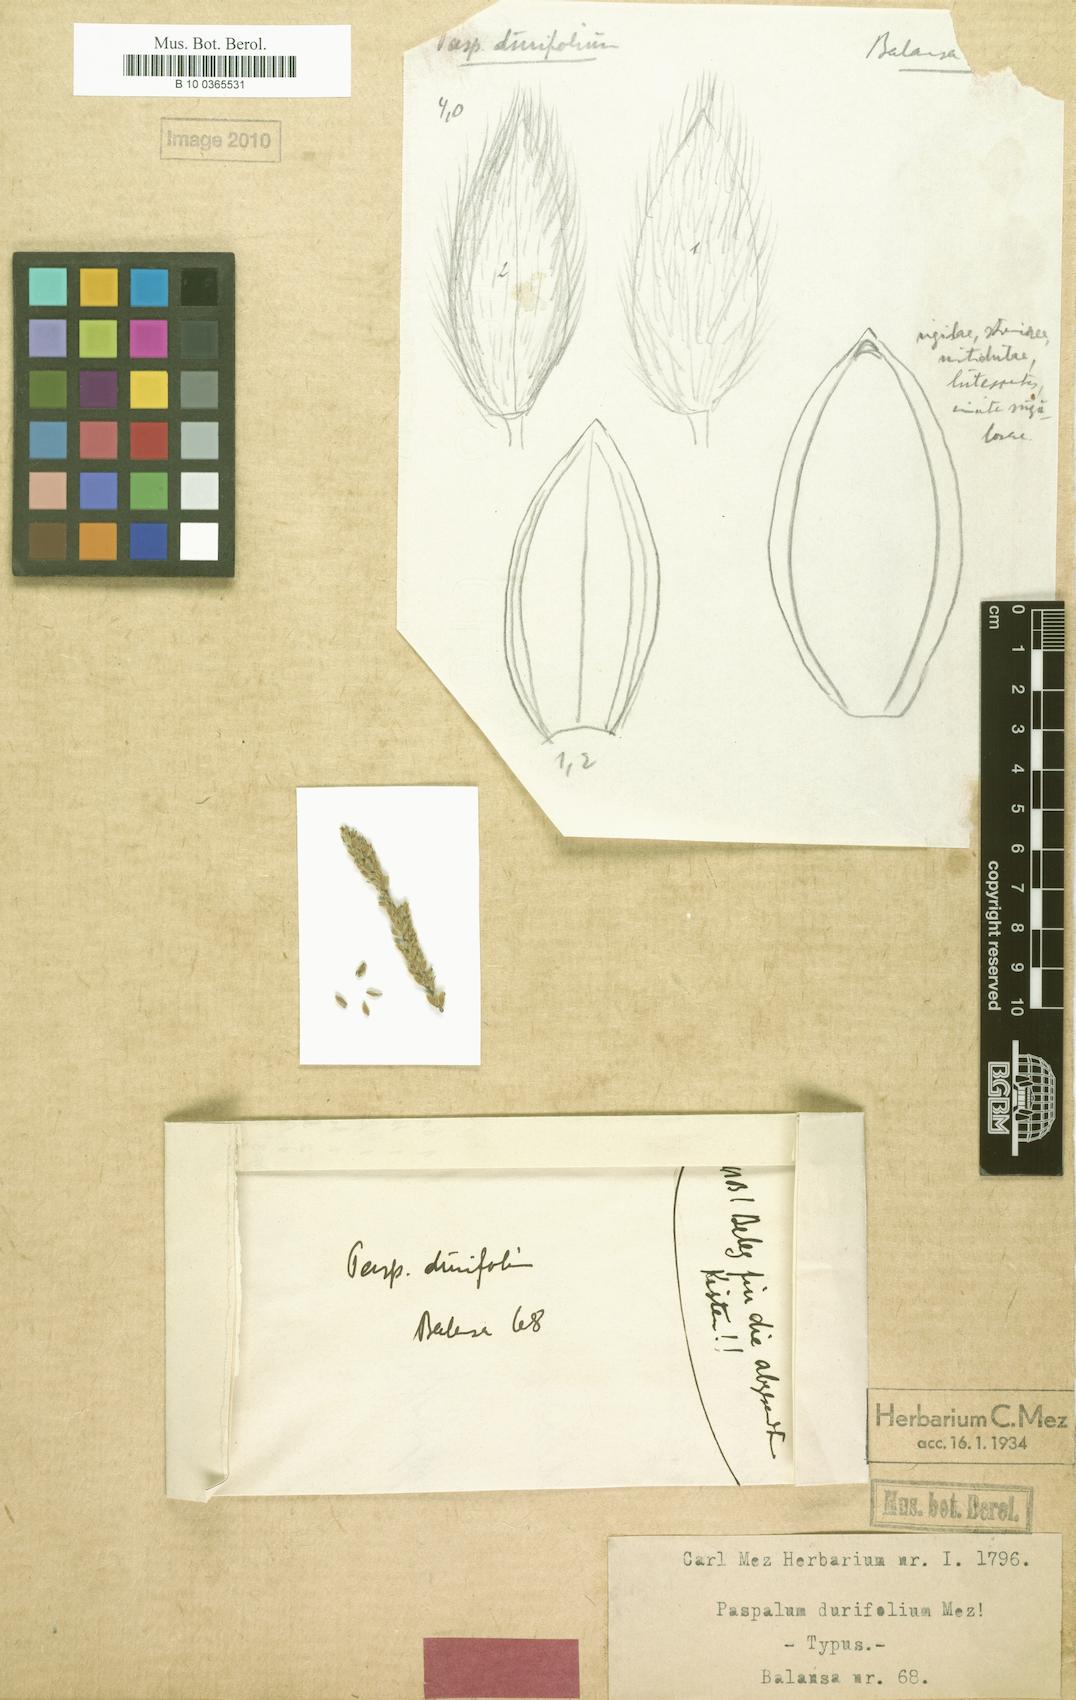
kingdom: Plantae
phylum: Tracheophyta
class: Liliopsida
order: Poales
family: Poaceae
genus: Paspalum
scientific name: Paspalum durifolium
